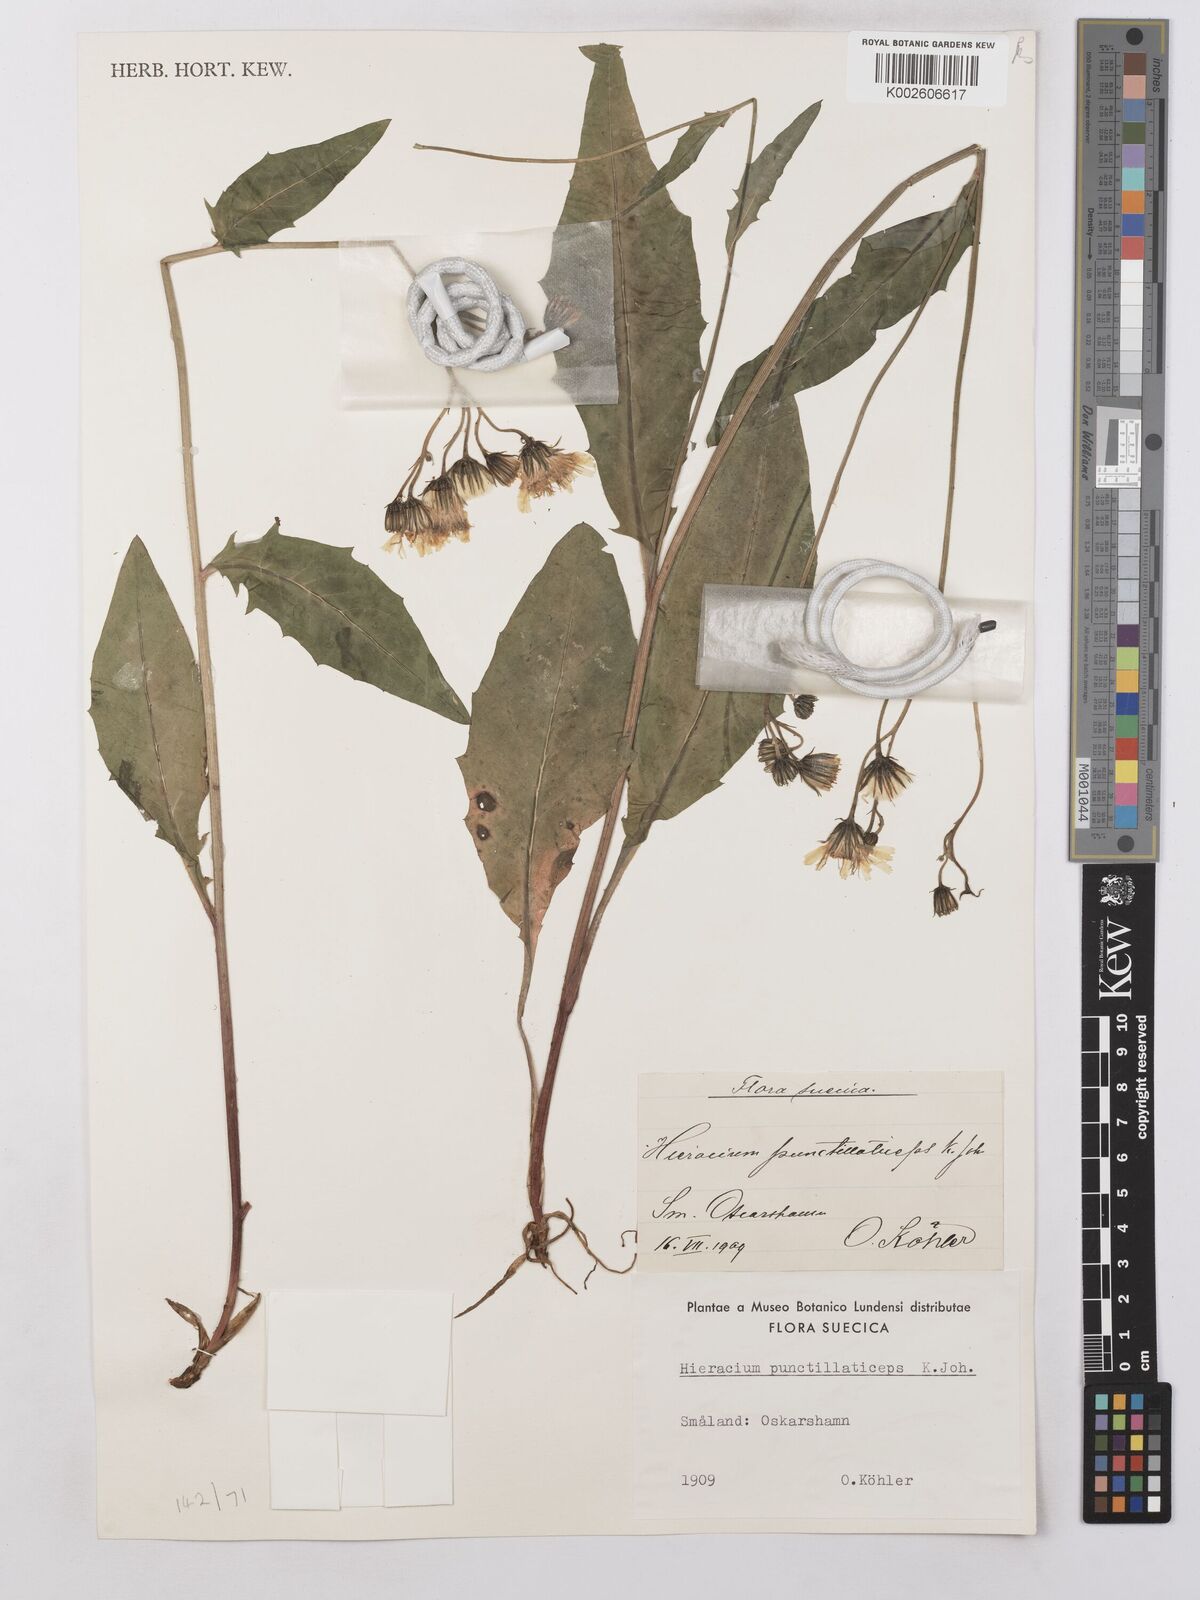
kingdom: Plantae
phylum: Tracheophyta
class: Magnoliopsida
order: Asterales
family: Asteraceae
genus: Hieracium
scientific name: Hieracium lachenalii
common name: Common hawkweed
